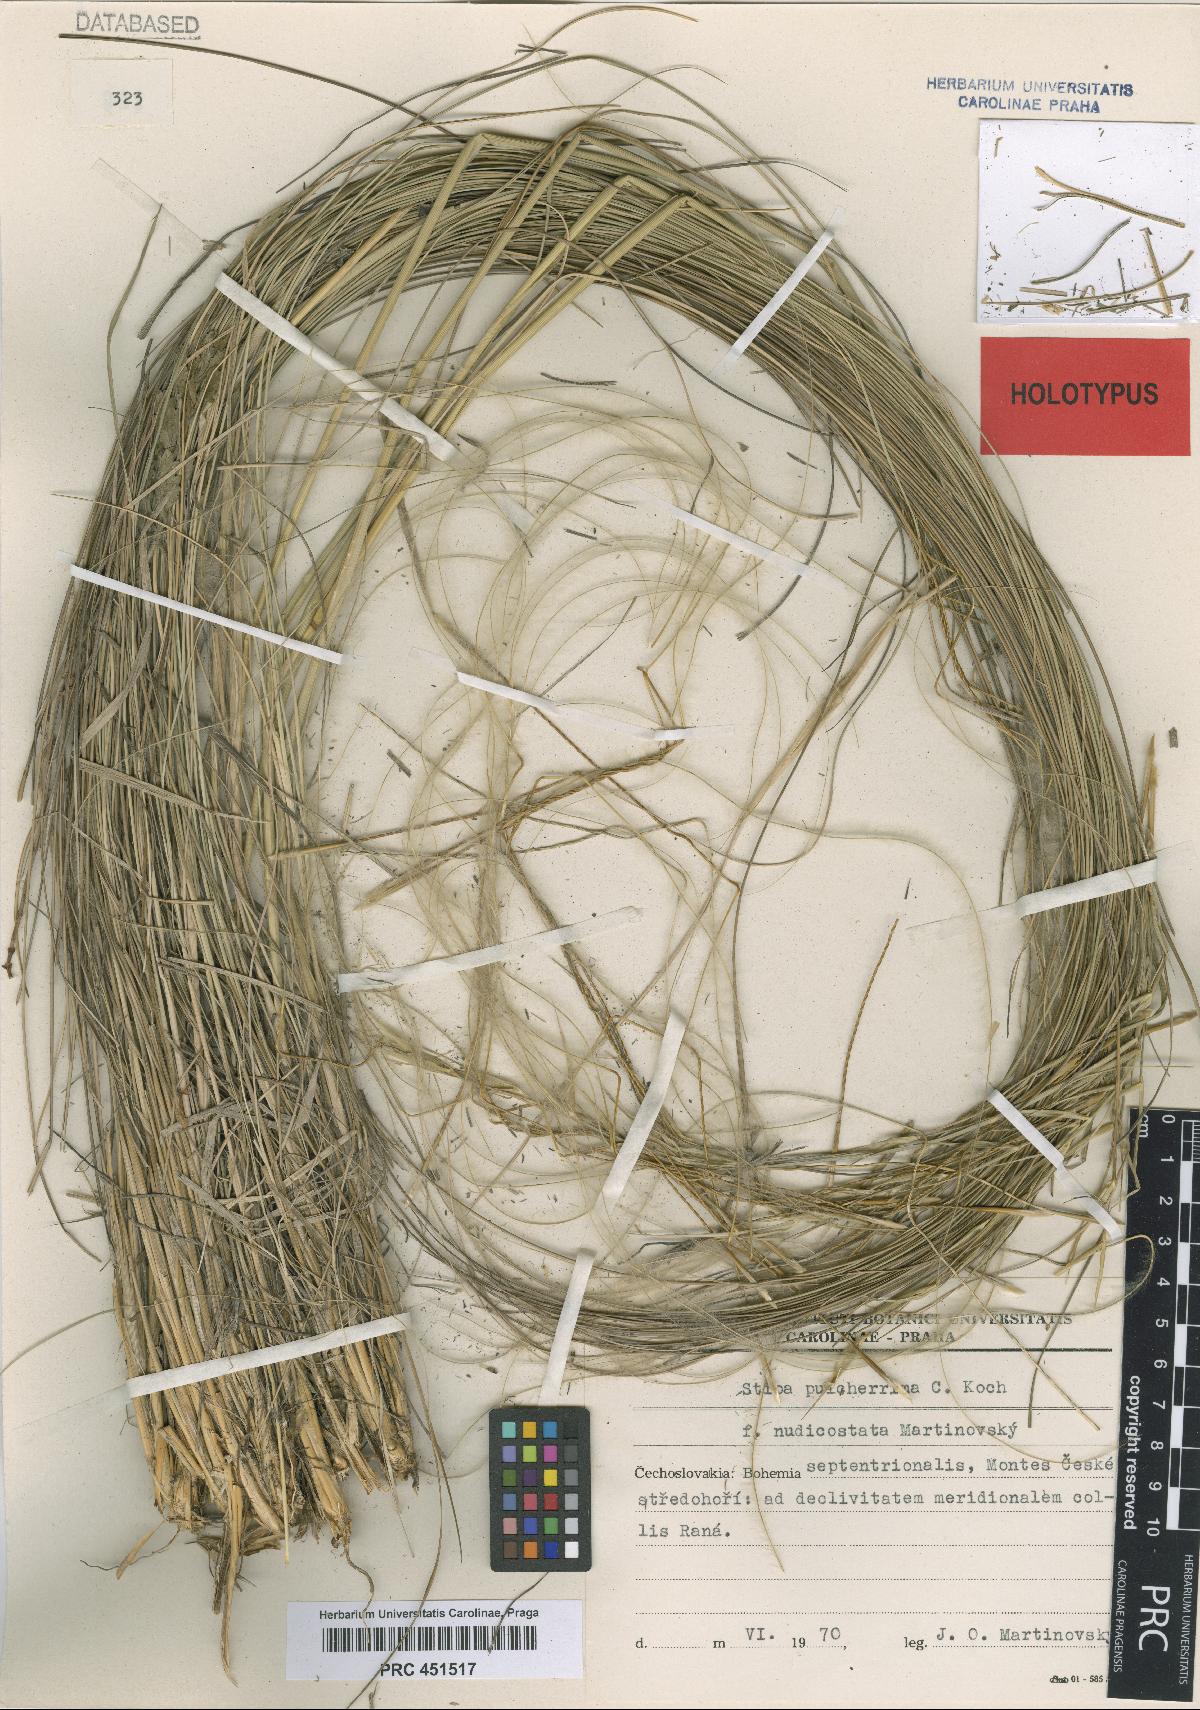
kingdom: Plantae
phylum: Tracheophyta
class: Liliopsida
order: Poales
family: Poaceae
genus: Stipa
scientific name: Stipa pulcherrima
